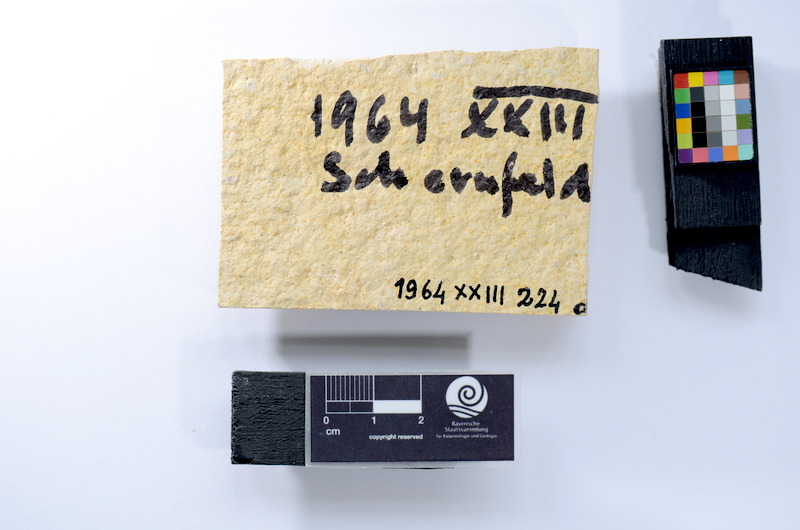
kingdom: Animalia
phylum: Chordata
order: Salmoniformes
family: Orthogonikleithridae
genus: Leptolepides
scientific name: Leptolepides
